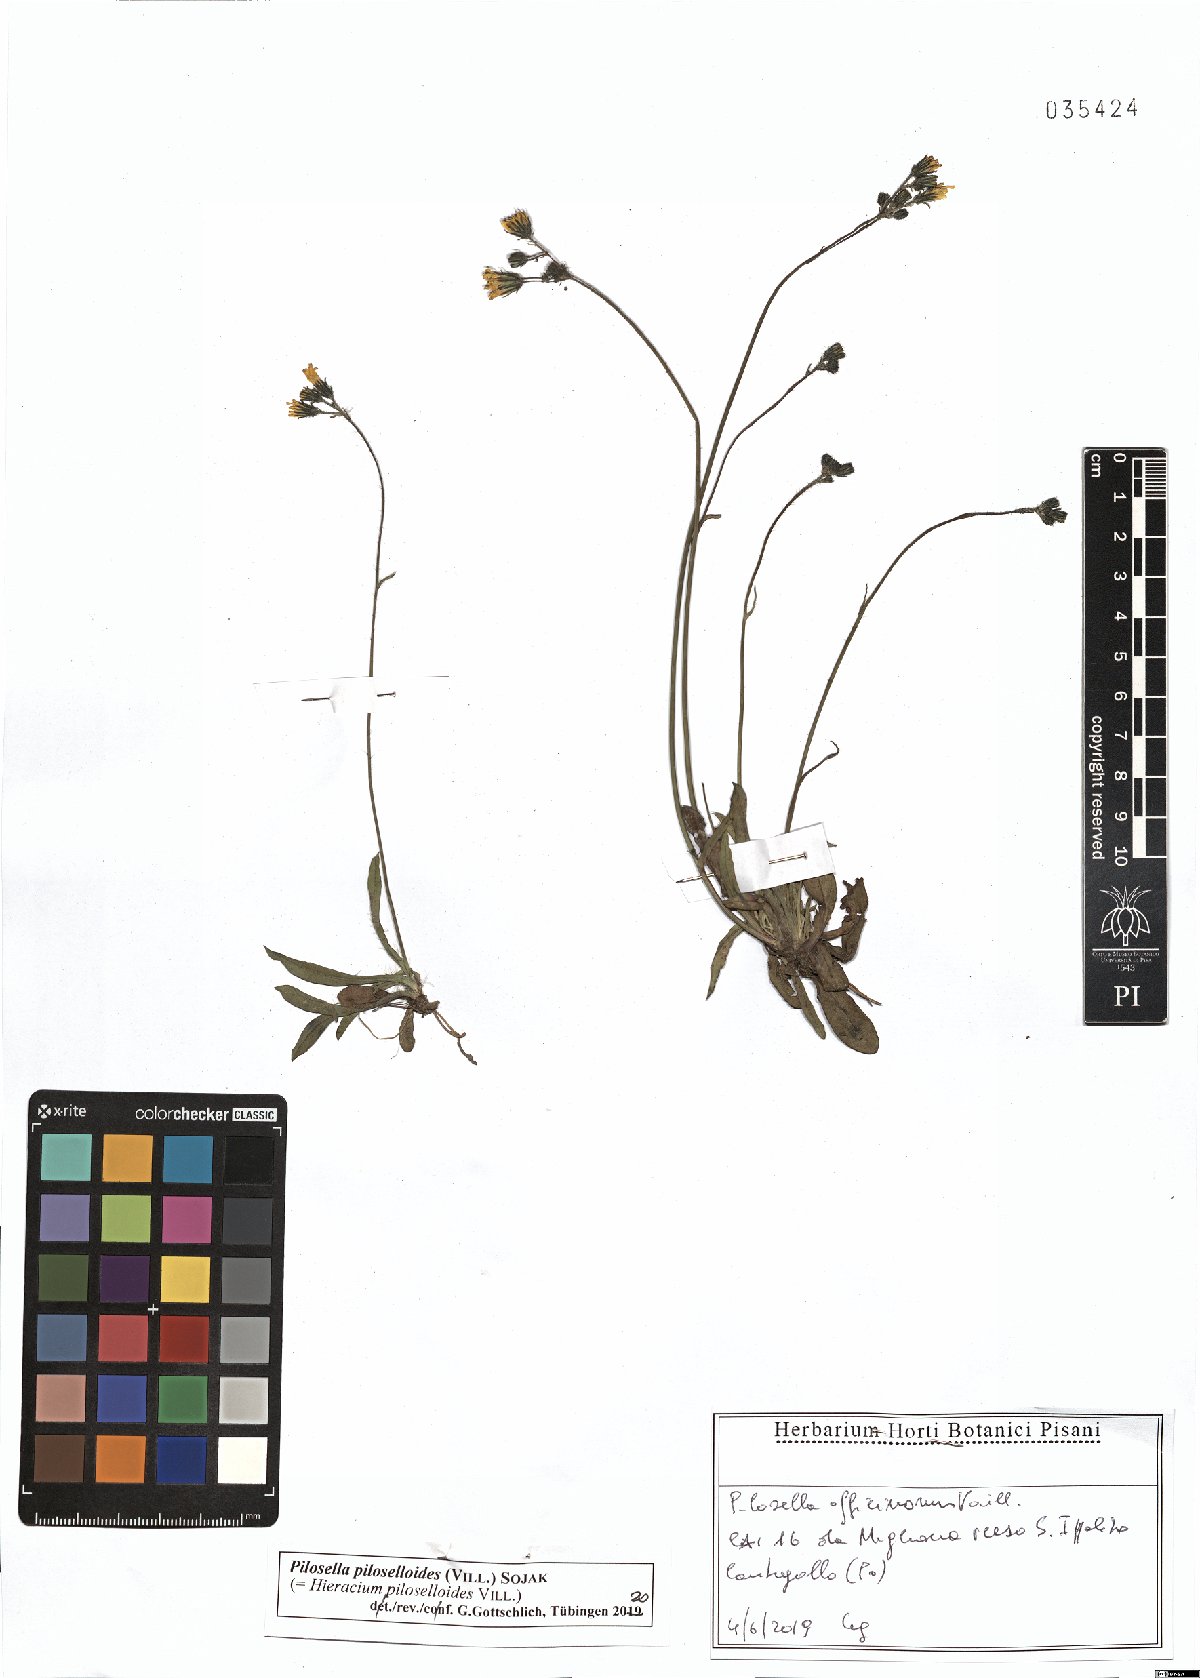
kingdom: Plantae
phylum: Tracheophyta
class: Magnoliopsida
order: Asterales
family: Asteraceae
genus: Pilosella
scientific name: Pilosella piloselloides
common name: Glaucous king-devil
